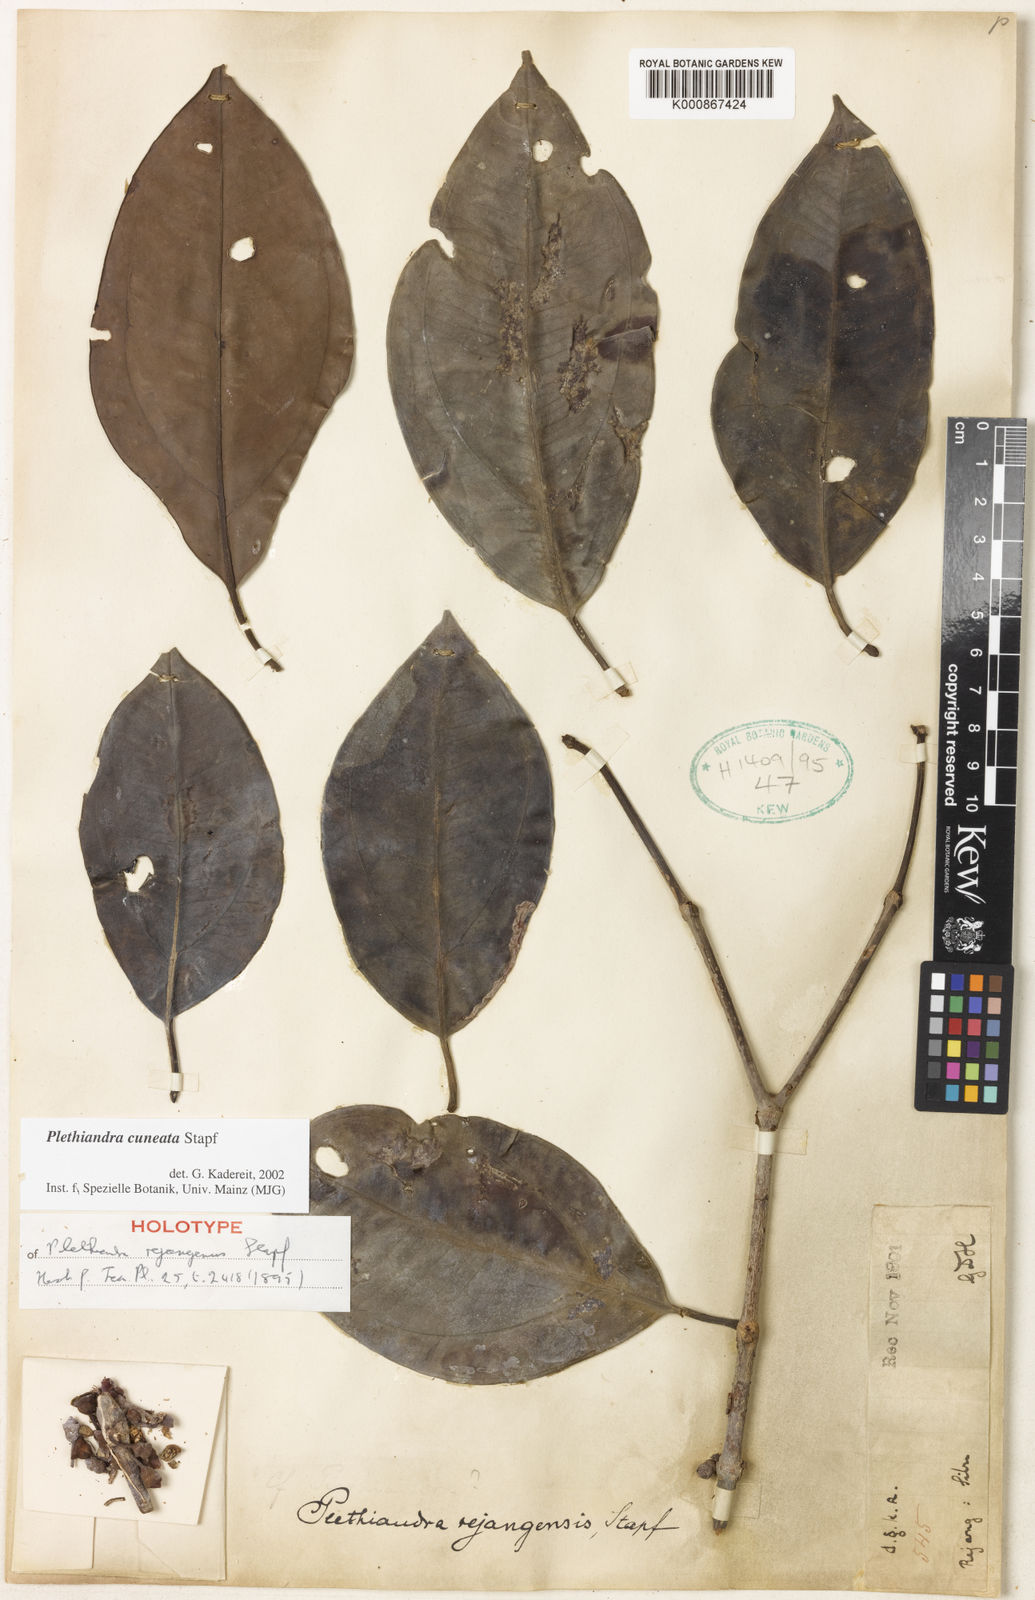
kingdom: Plantae
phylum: Tracheophyta
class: Magnoliopsida
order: Myrtales
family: Melastomataceae
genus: Plethiandra
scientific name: Plethiandra cuneata
